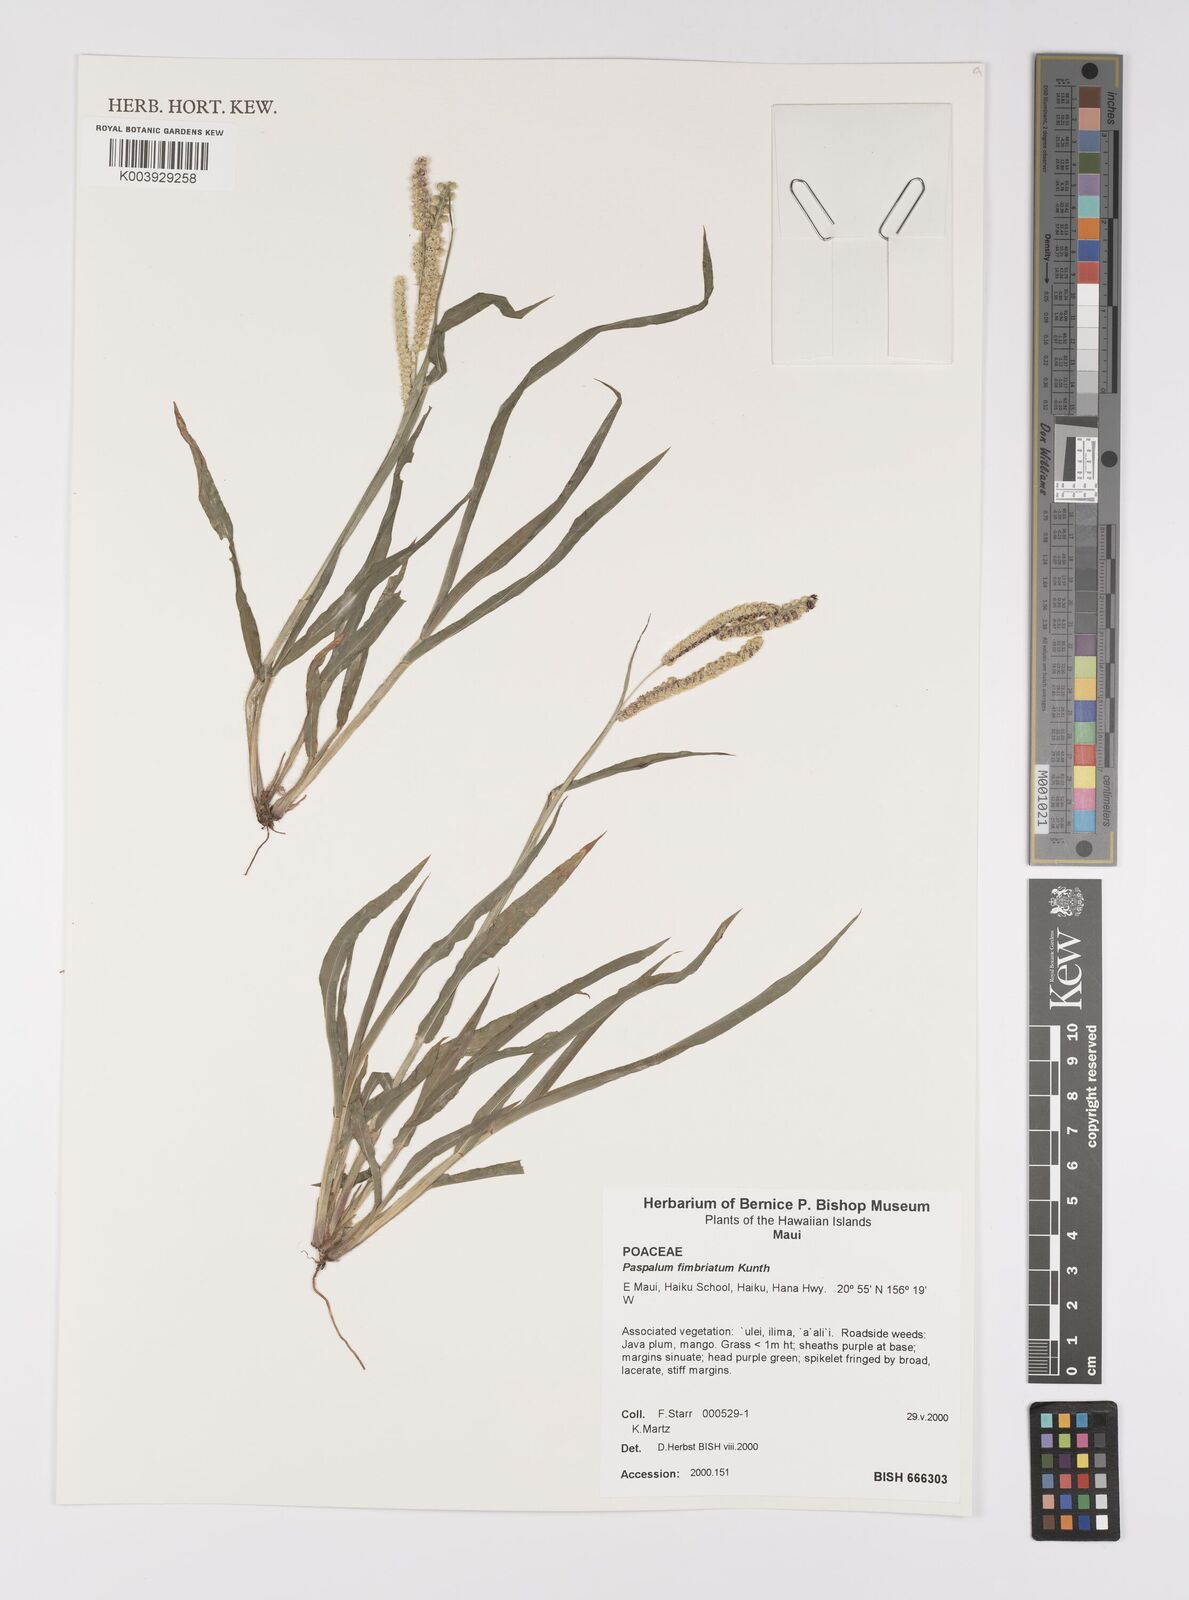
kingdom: Plantae
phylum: Tracheophyta
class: Liliopsida
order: Poales
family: Poaceae
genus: Paspalum
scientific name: Paspalum fimbriatum
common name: Panama crowngrass
